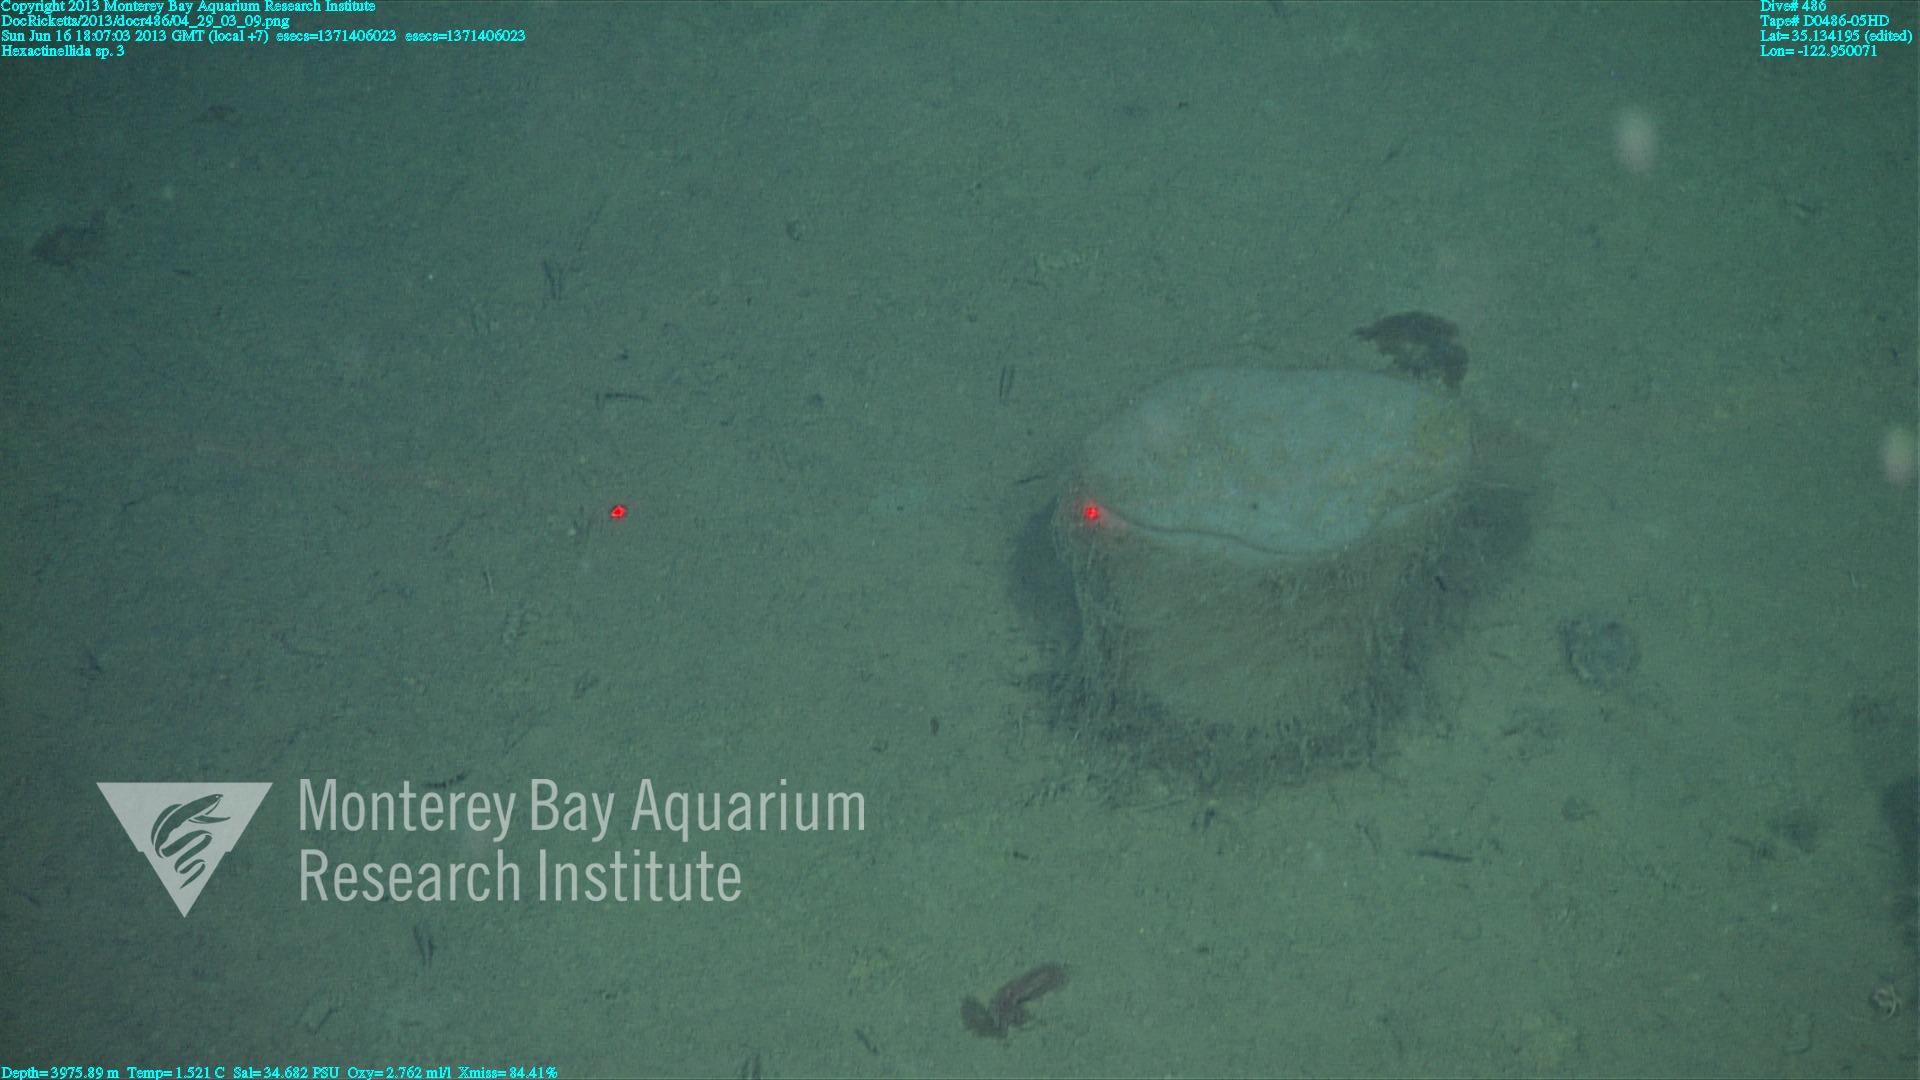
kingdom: Animalia
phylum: Porifera
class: Hexactinellida
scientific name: Hexactinellida
